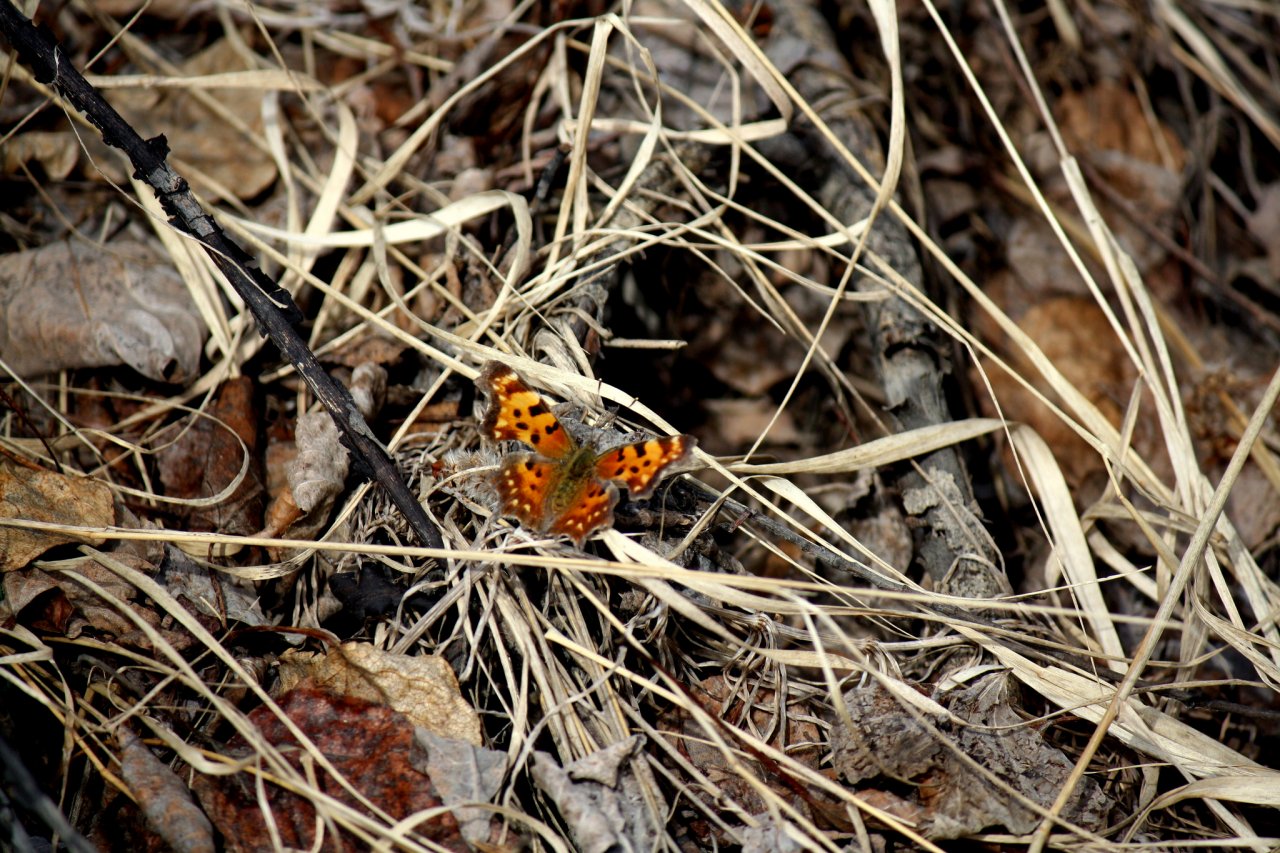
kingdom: Animalia
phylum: Arthropoda
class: Insecta
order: Lepidoptera
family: Nymphalidae
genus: Polygonia
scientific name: Polygonia faunus
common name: Green Comma
